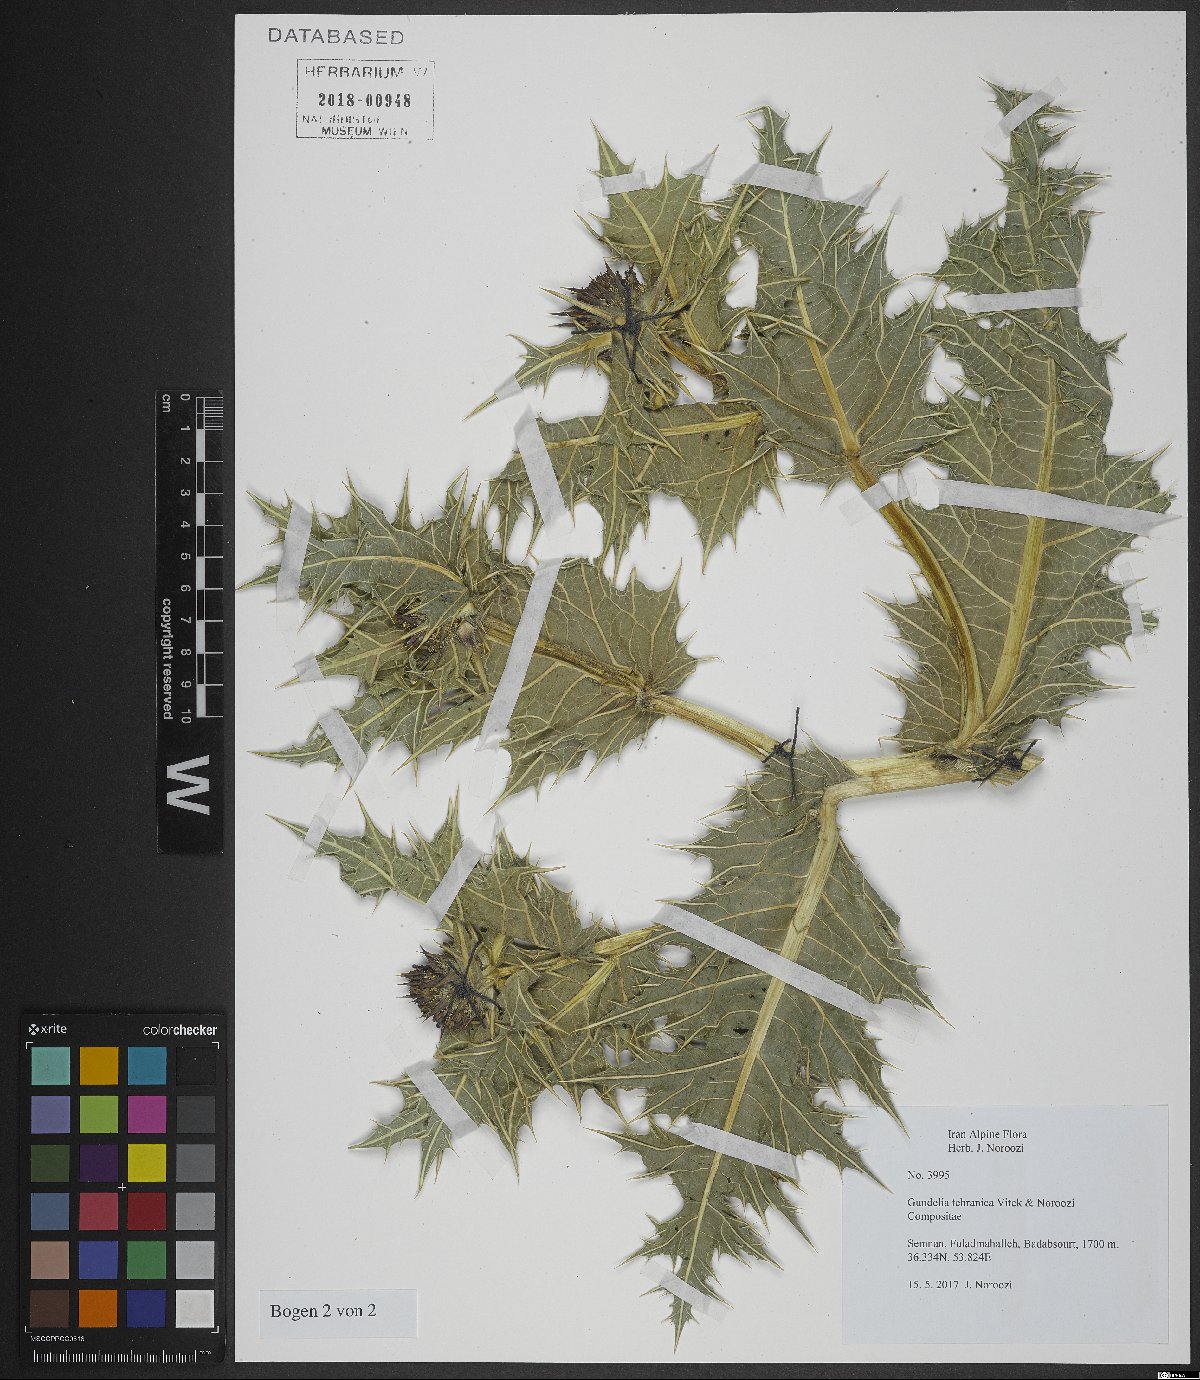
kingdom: Plantae
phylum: Tracheophyta
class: Magnoliopsida
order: Asterales
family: Asteraceae
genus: Gundelia
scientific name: Gundelia tehranica
